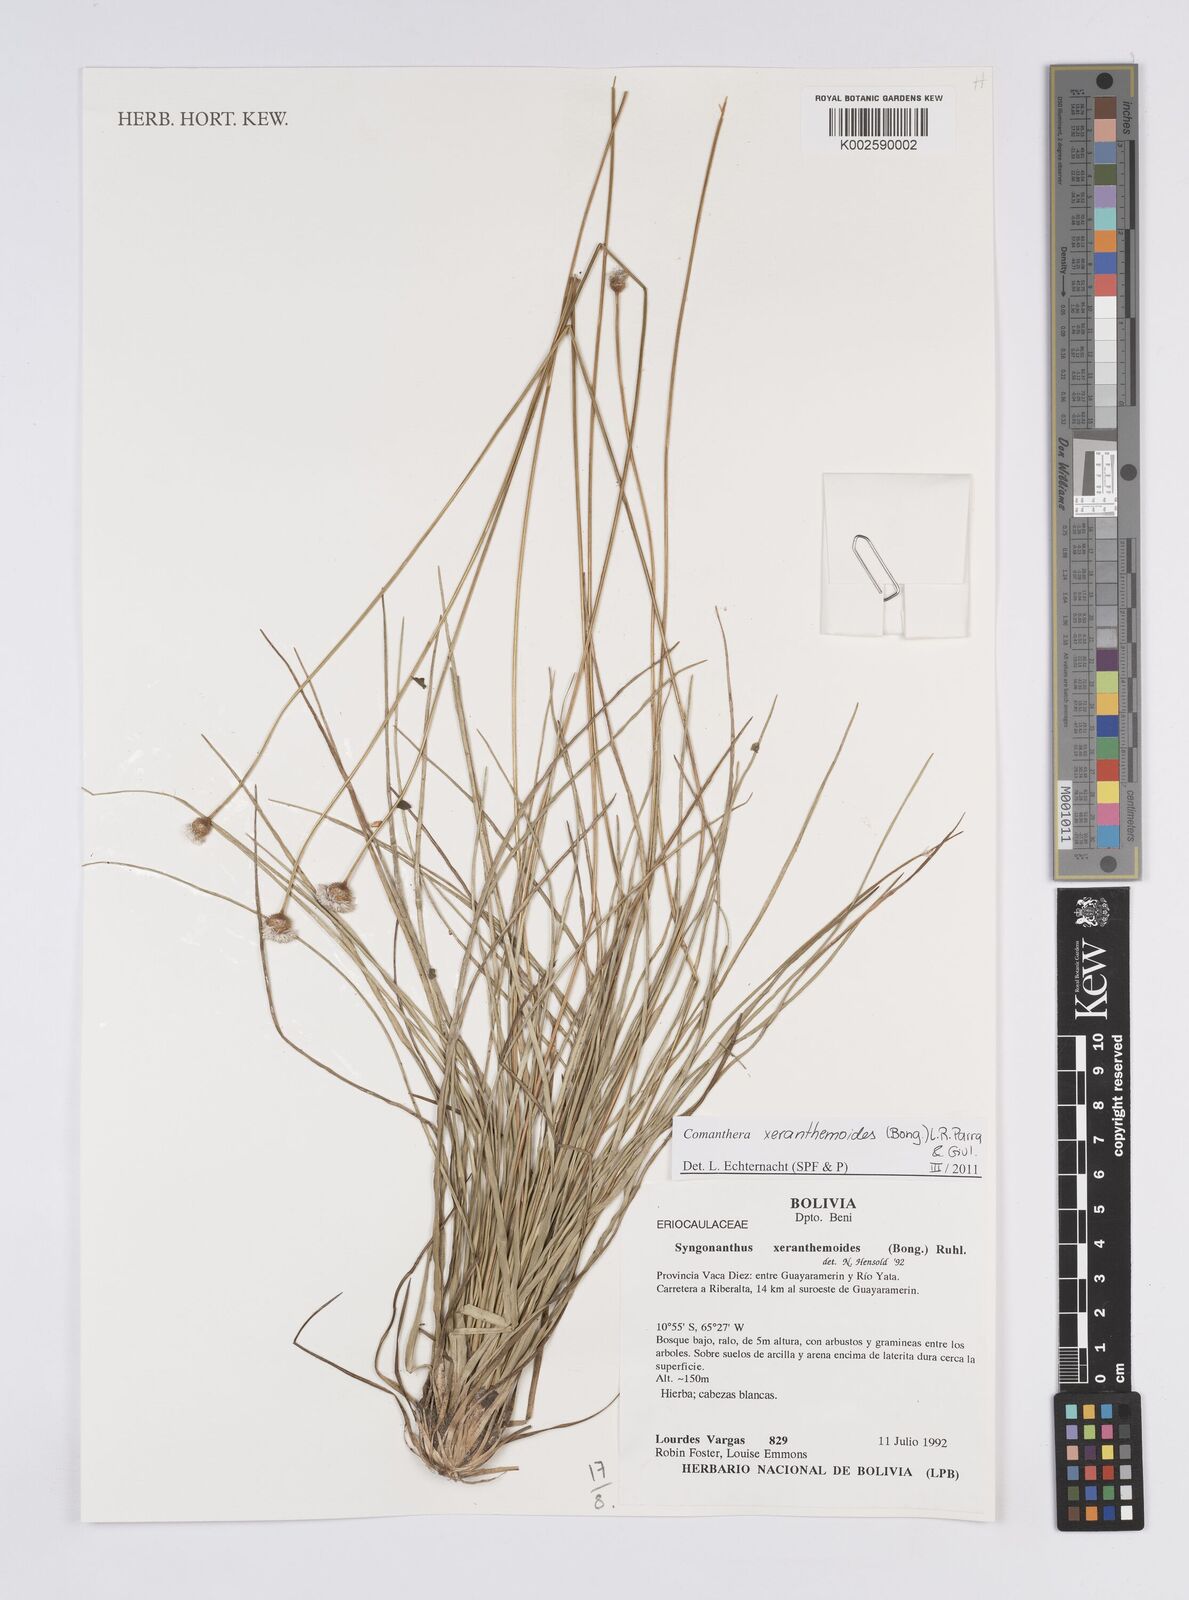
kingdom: Plantae
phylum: Tracheophyta
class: Liliopsida
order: Poales
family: Eriocaulaceae
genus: Comanthera
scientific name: Comanthera xeranthemoides
